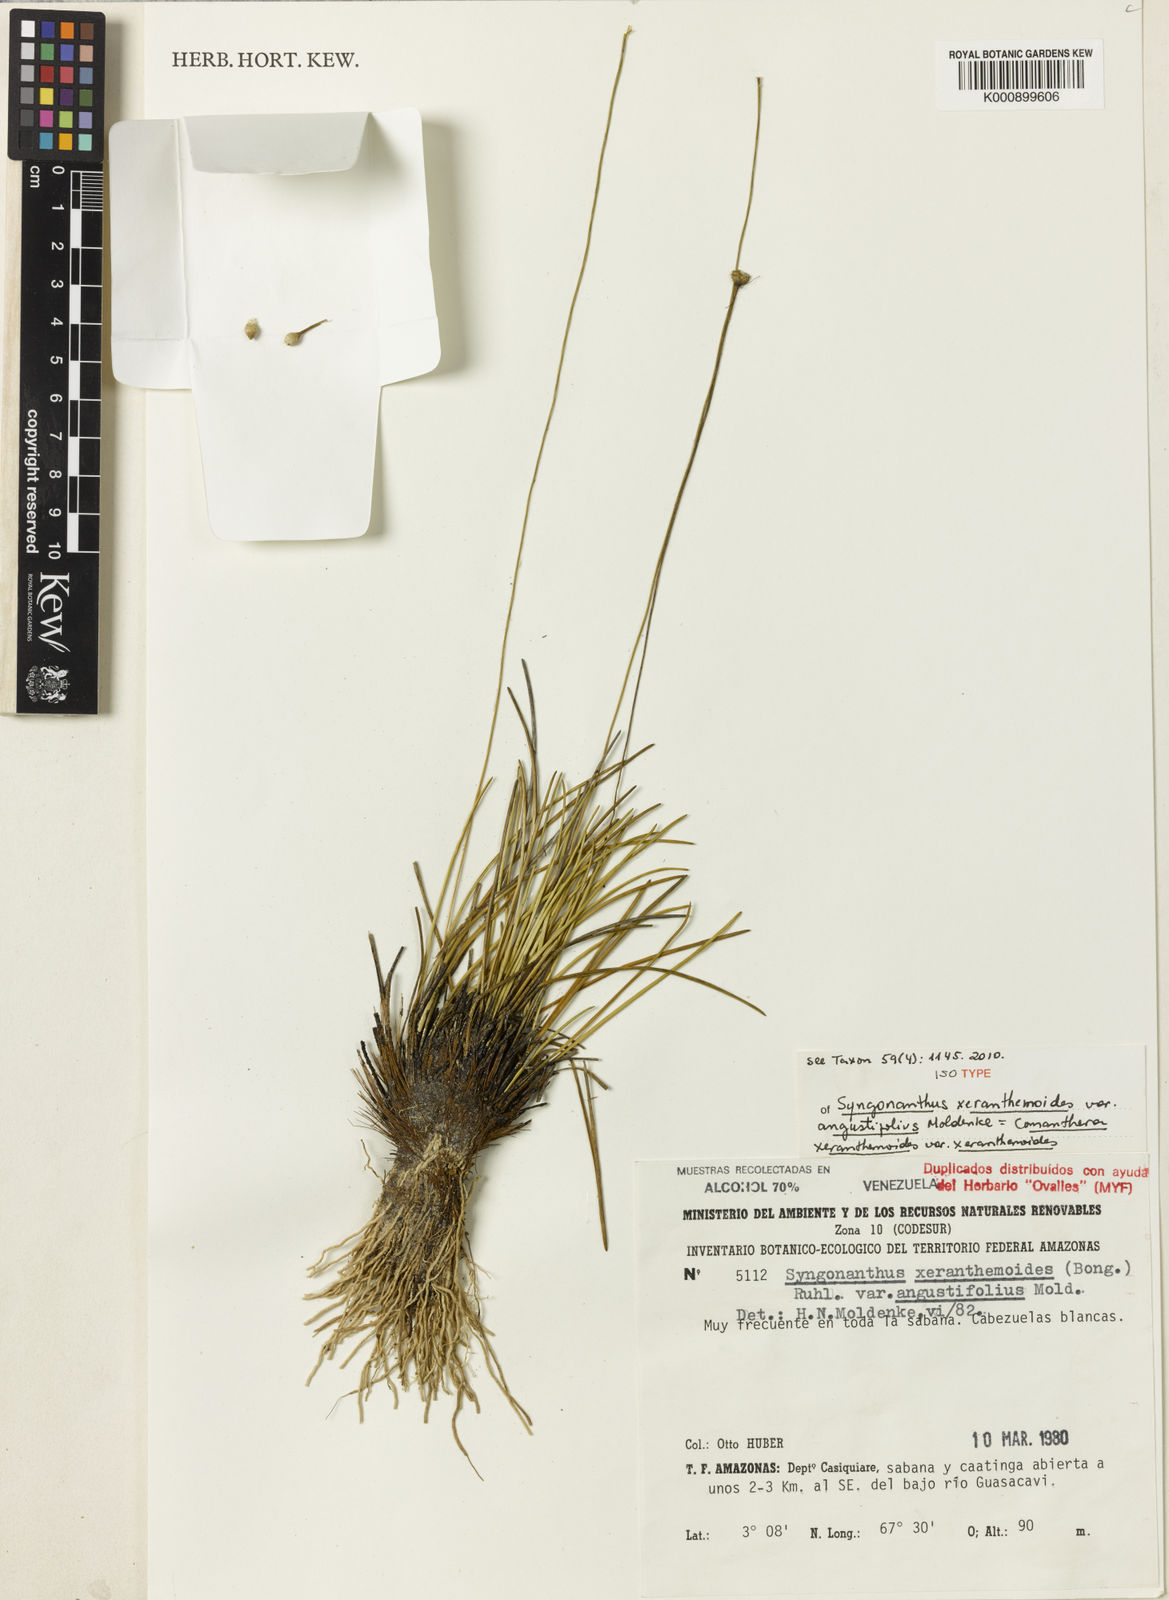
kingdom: Plantae
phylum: Tracheophyta
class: Liliopsida
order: Poales
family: Eriocaulaceae
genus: Comanthera
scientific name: Comanthera xeranthemoides
